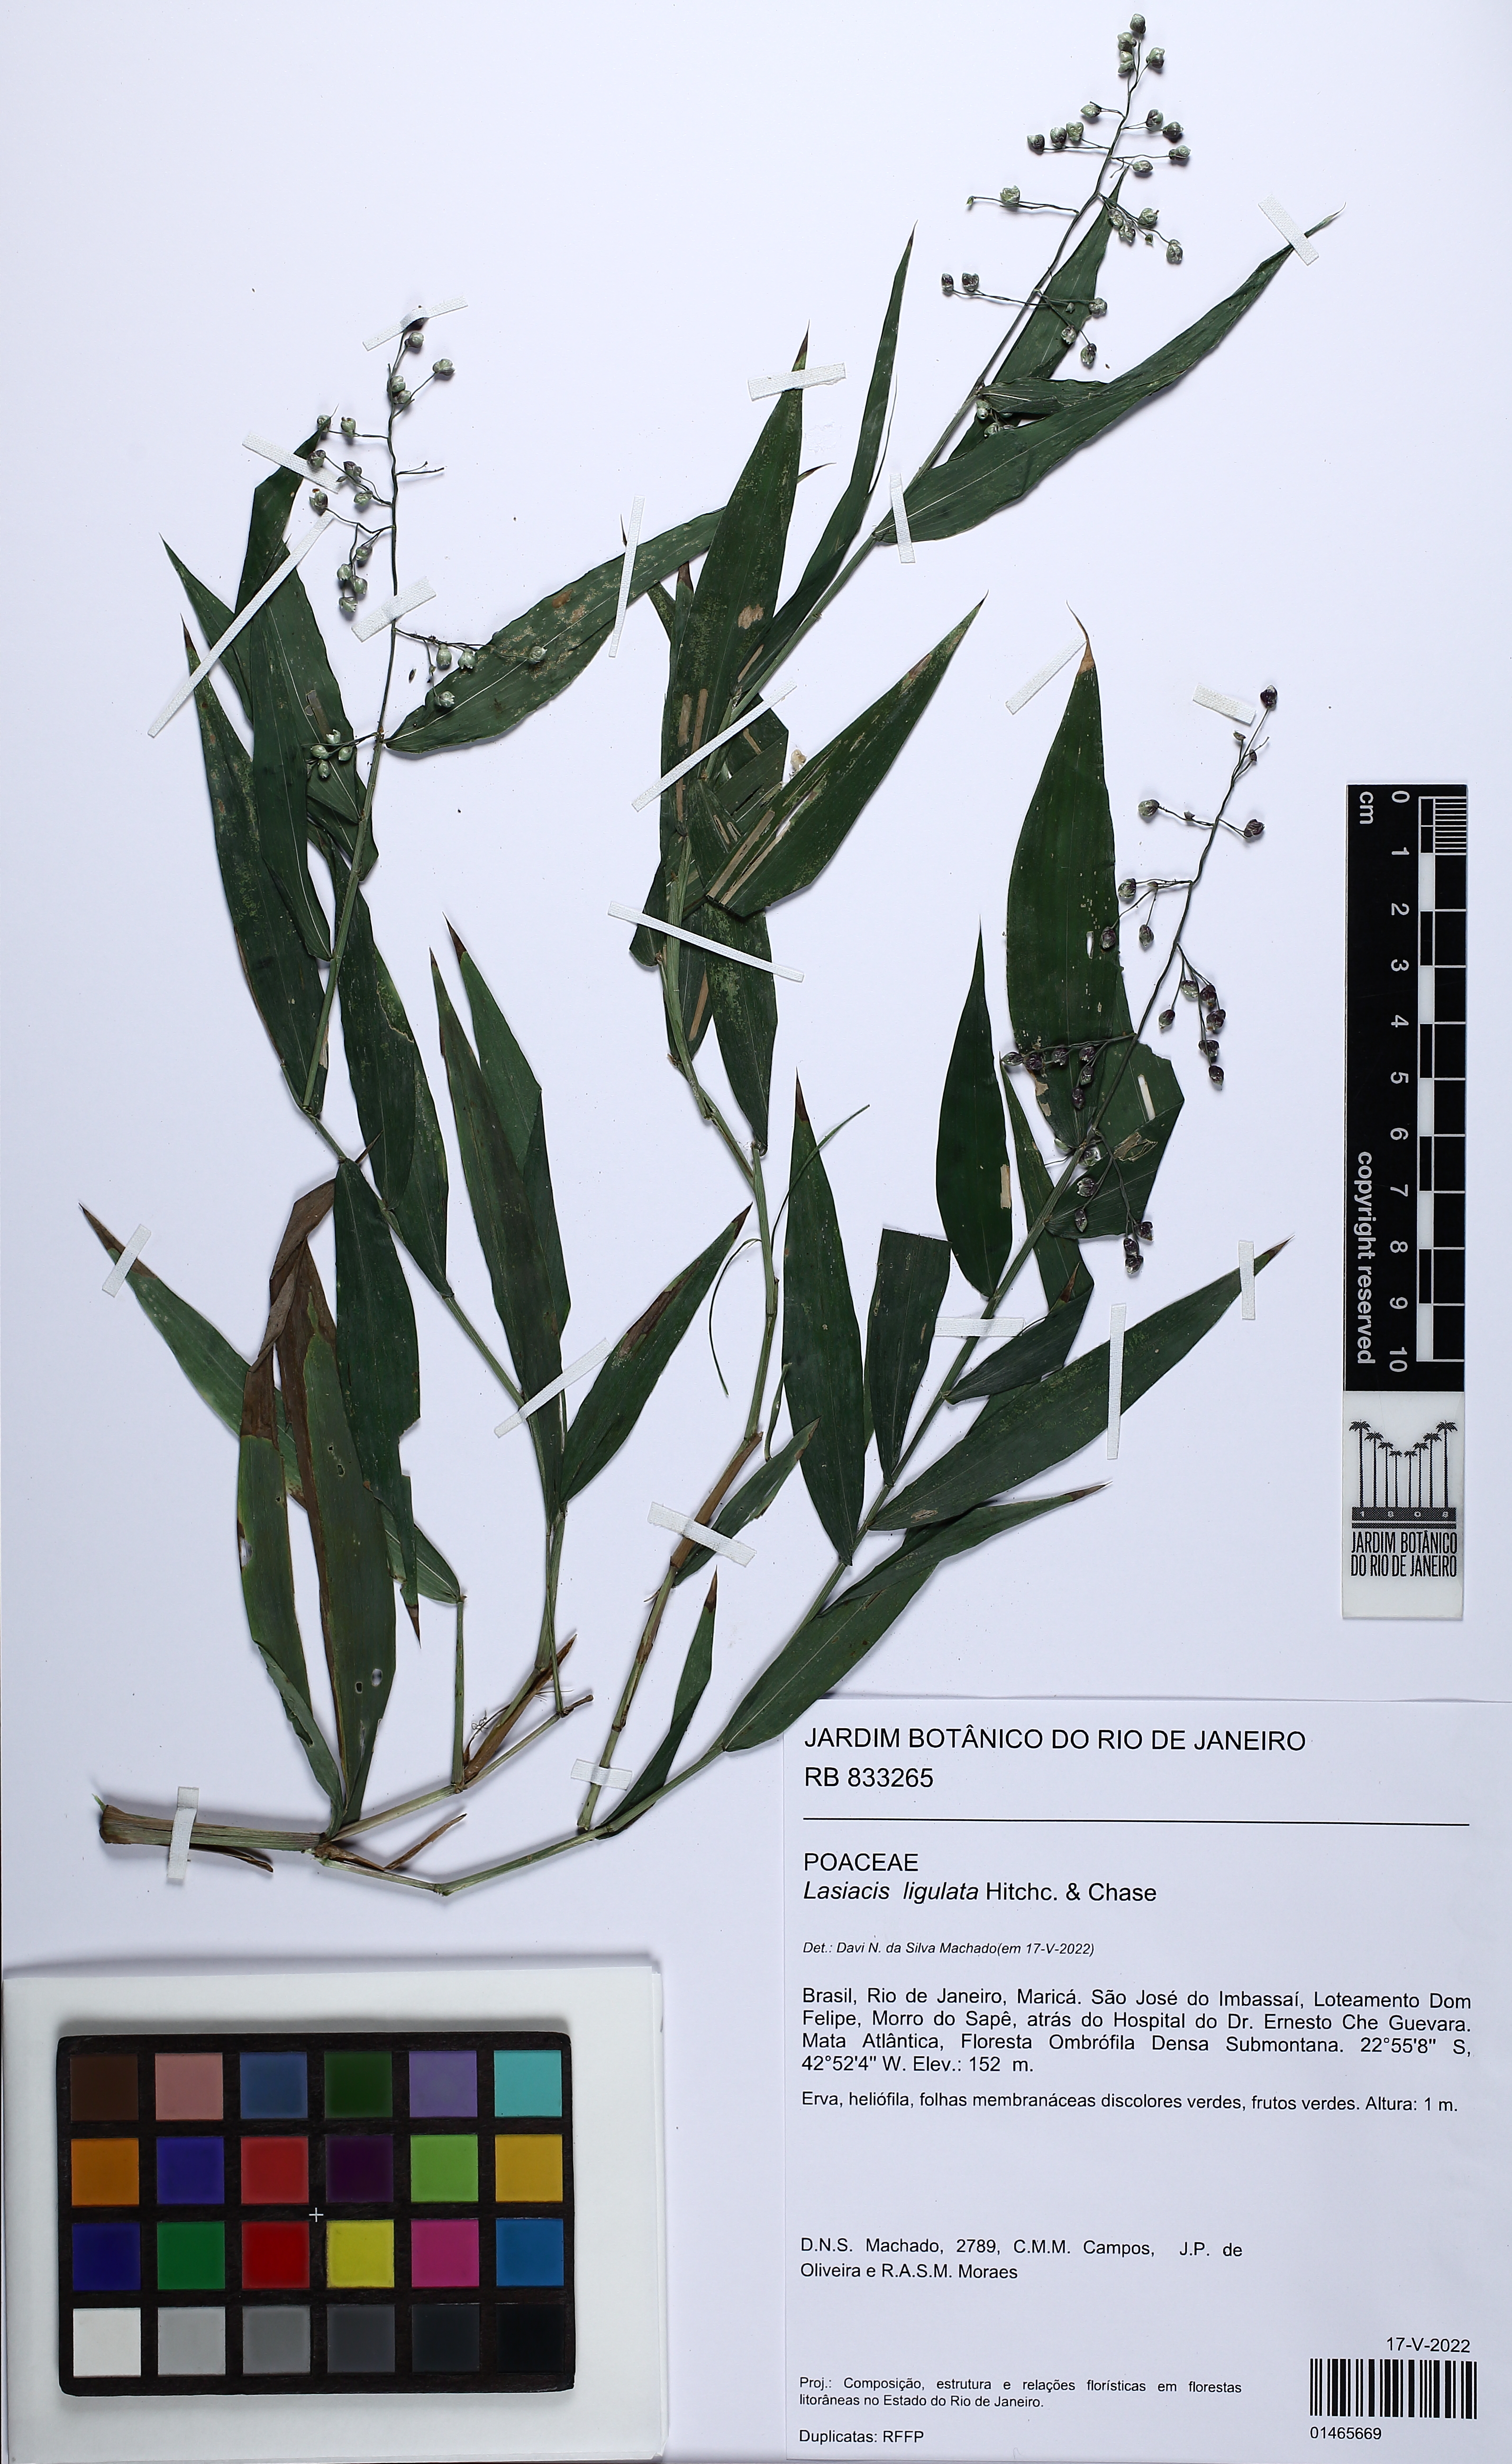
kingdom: Plantae
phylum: Tracheophyta
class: Liliopsida
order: Poales
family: Poaceae
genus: Lasiacis
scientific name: Lasiacis ligulata
